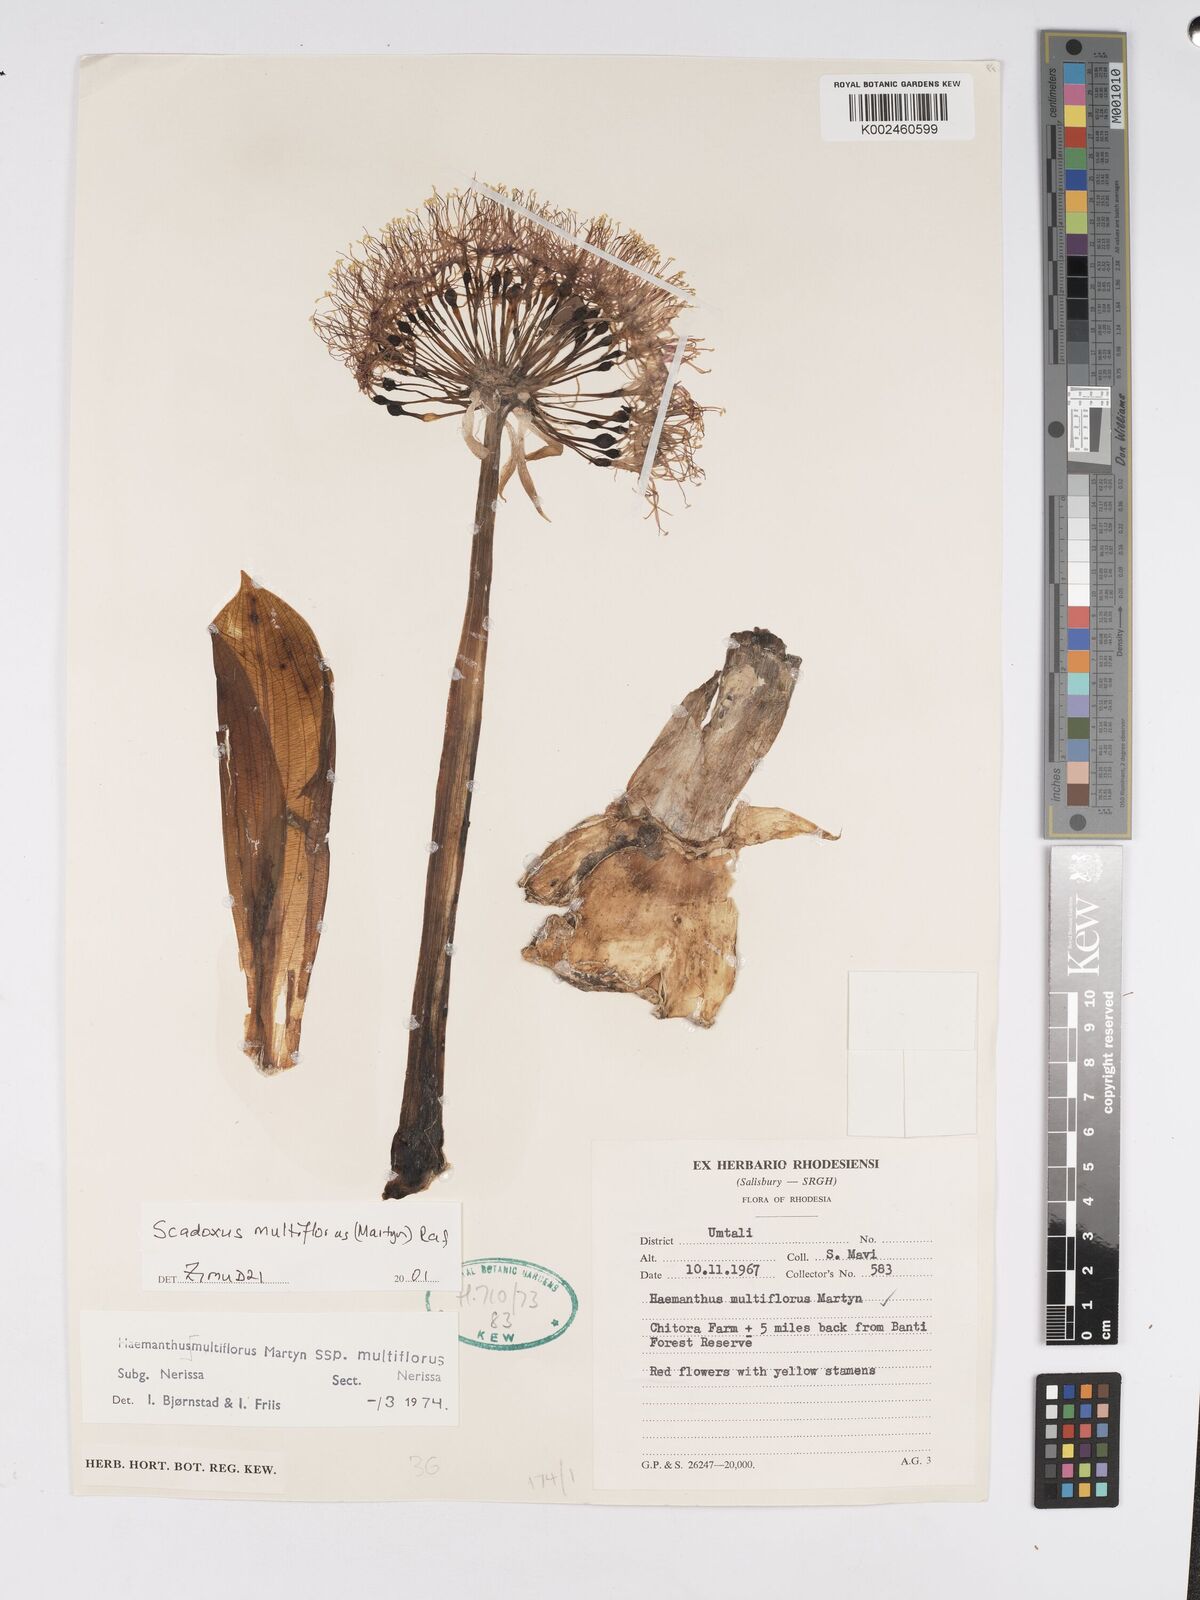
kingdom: Plantae
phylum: Tracheophyta
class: Liliopsida
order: Asparagales
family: Amaryllidaceae
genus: Scadoxus
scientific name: Scadoxus multiflorus
